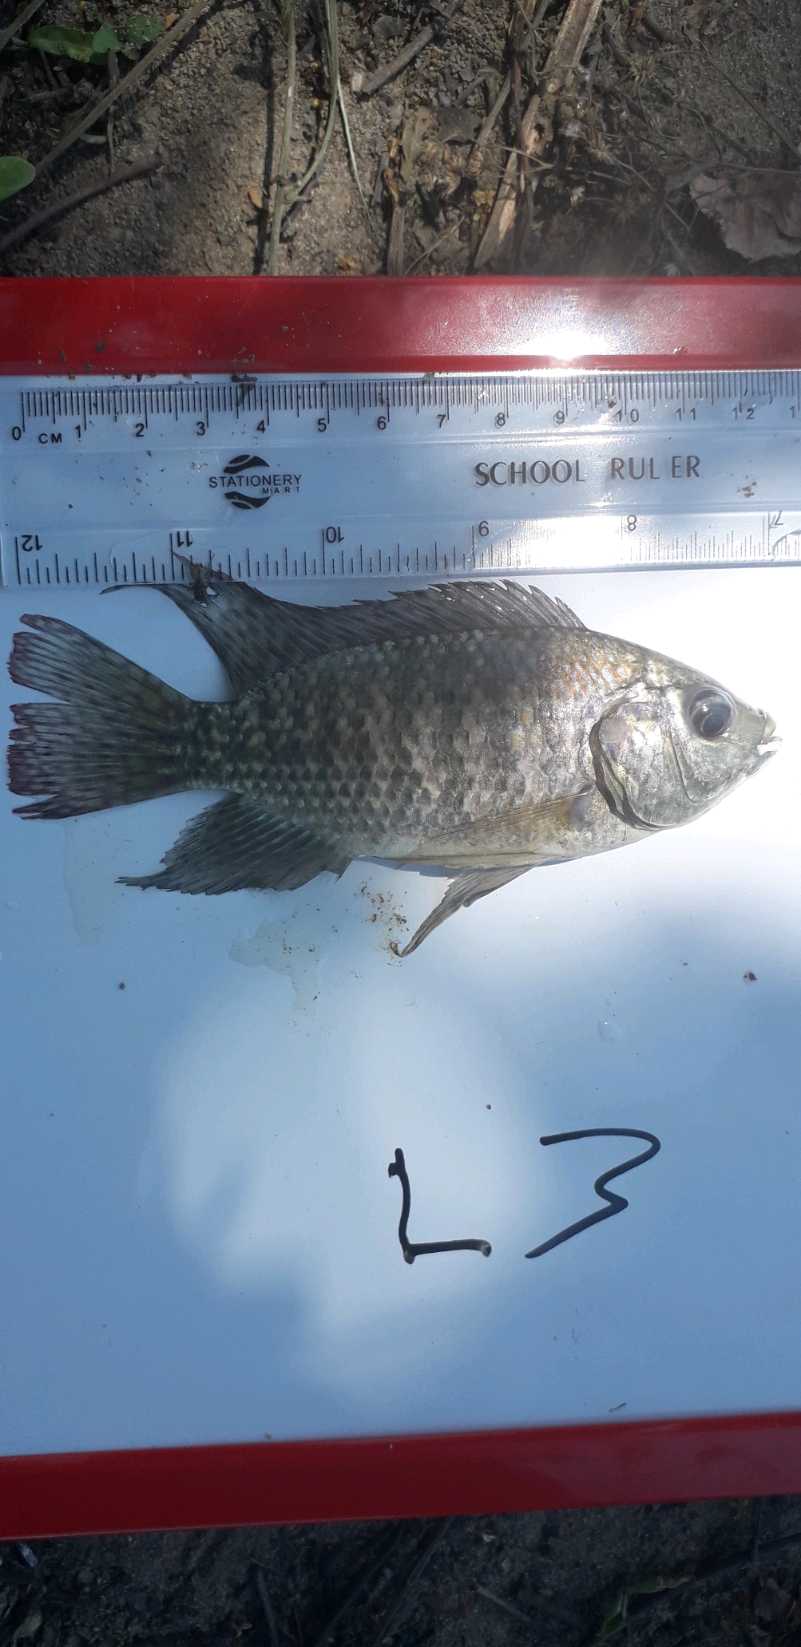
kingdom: Animalia
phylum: Chordata
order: Perciformes
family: Cichlidae
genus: Oreochromis
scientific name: Oreochromis leucostictus
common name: Blue spotted tilapia
